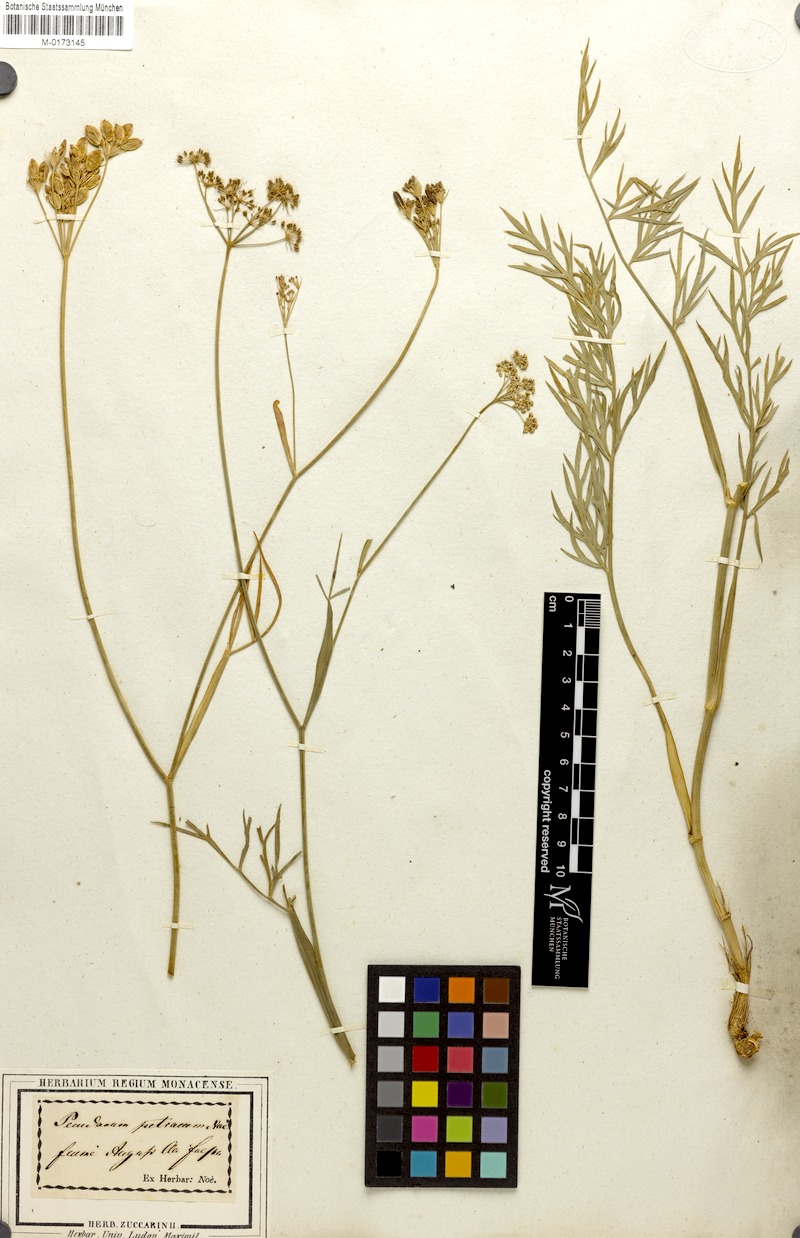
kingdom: Plantae
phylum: Tracheophyta
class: Magnoliopsida
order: Apiales
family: Apiaceae
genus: Dichoropetalum
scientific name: Dichoropetalum schottii
